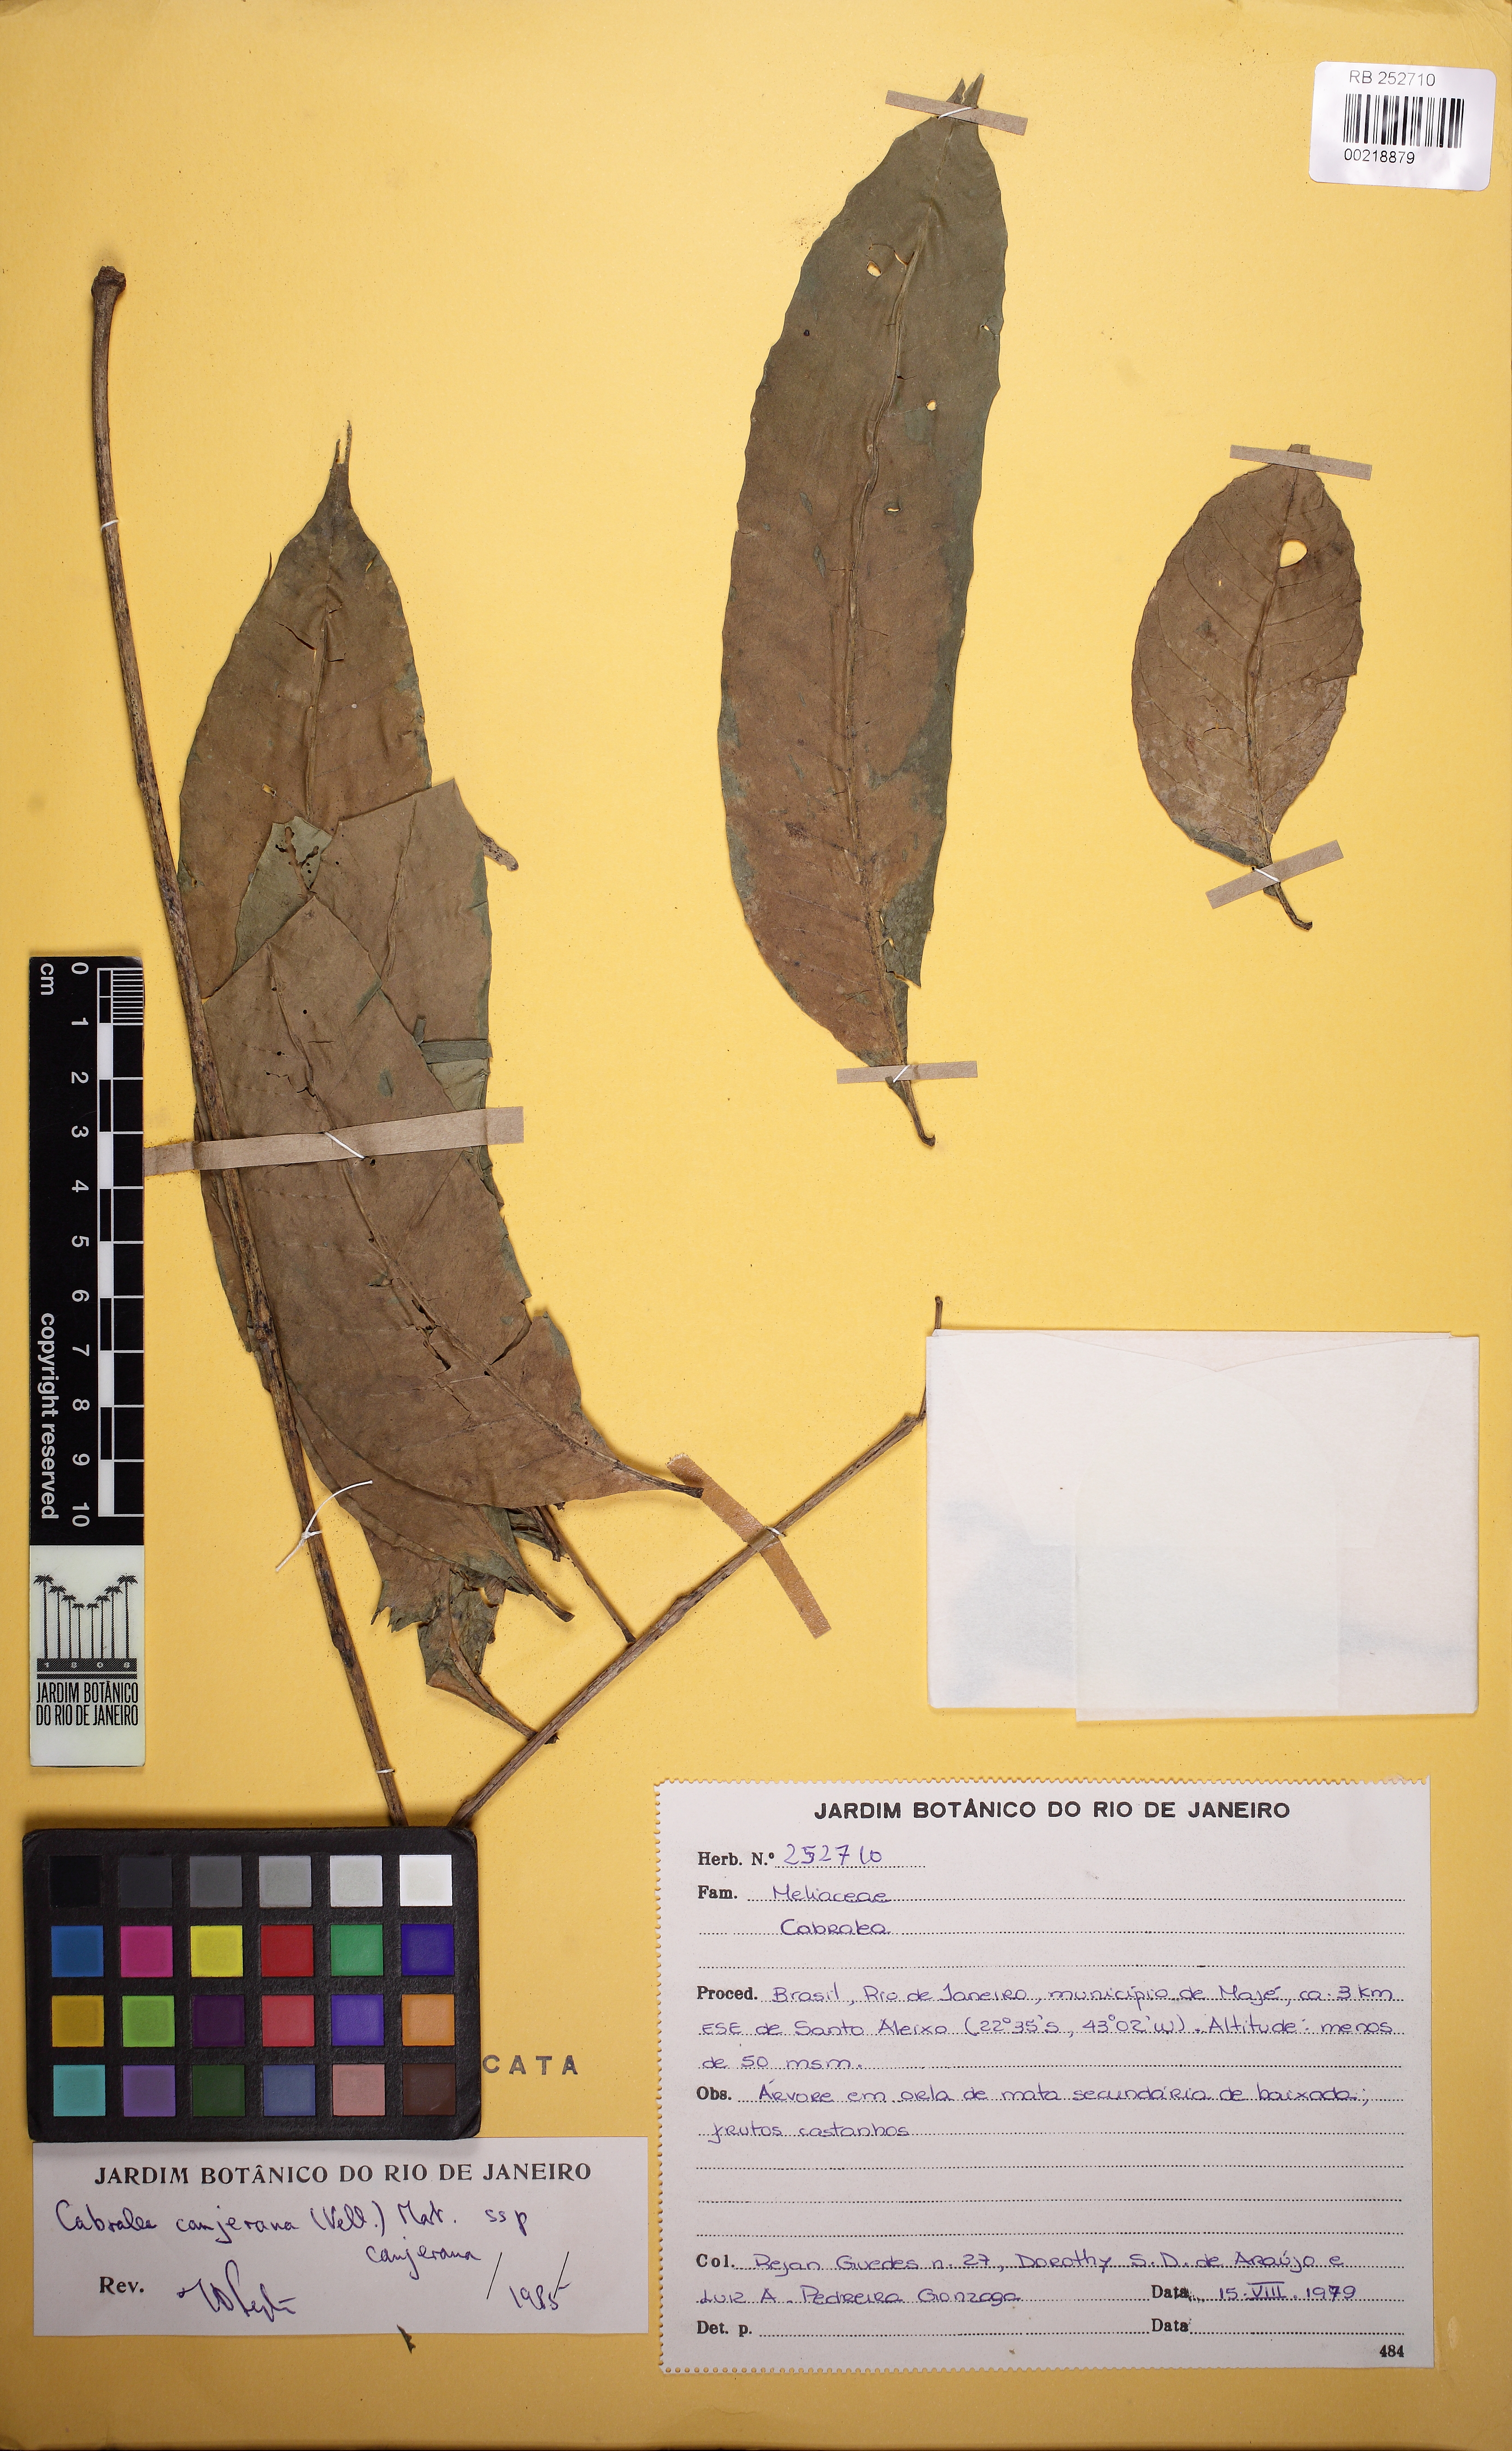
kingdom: Plantae
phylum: Tracheophyta
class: Magnoliopsida
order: Sapindales
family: Meliaceae
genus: Cabralea
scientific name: Cabralea canjerana
